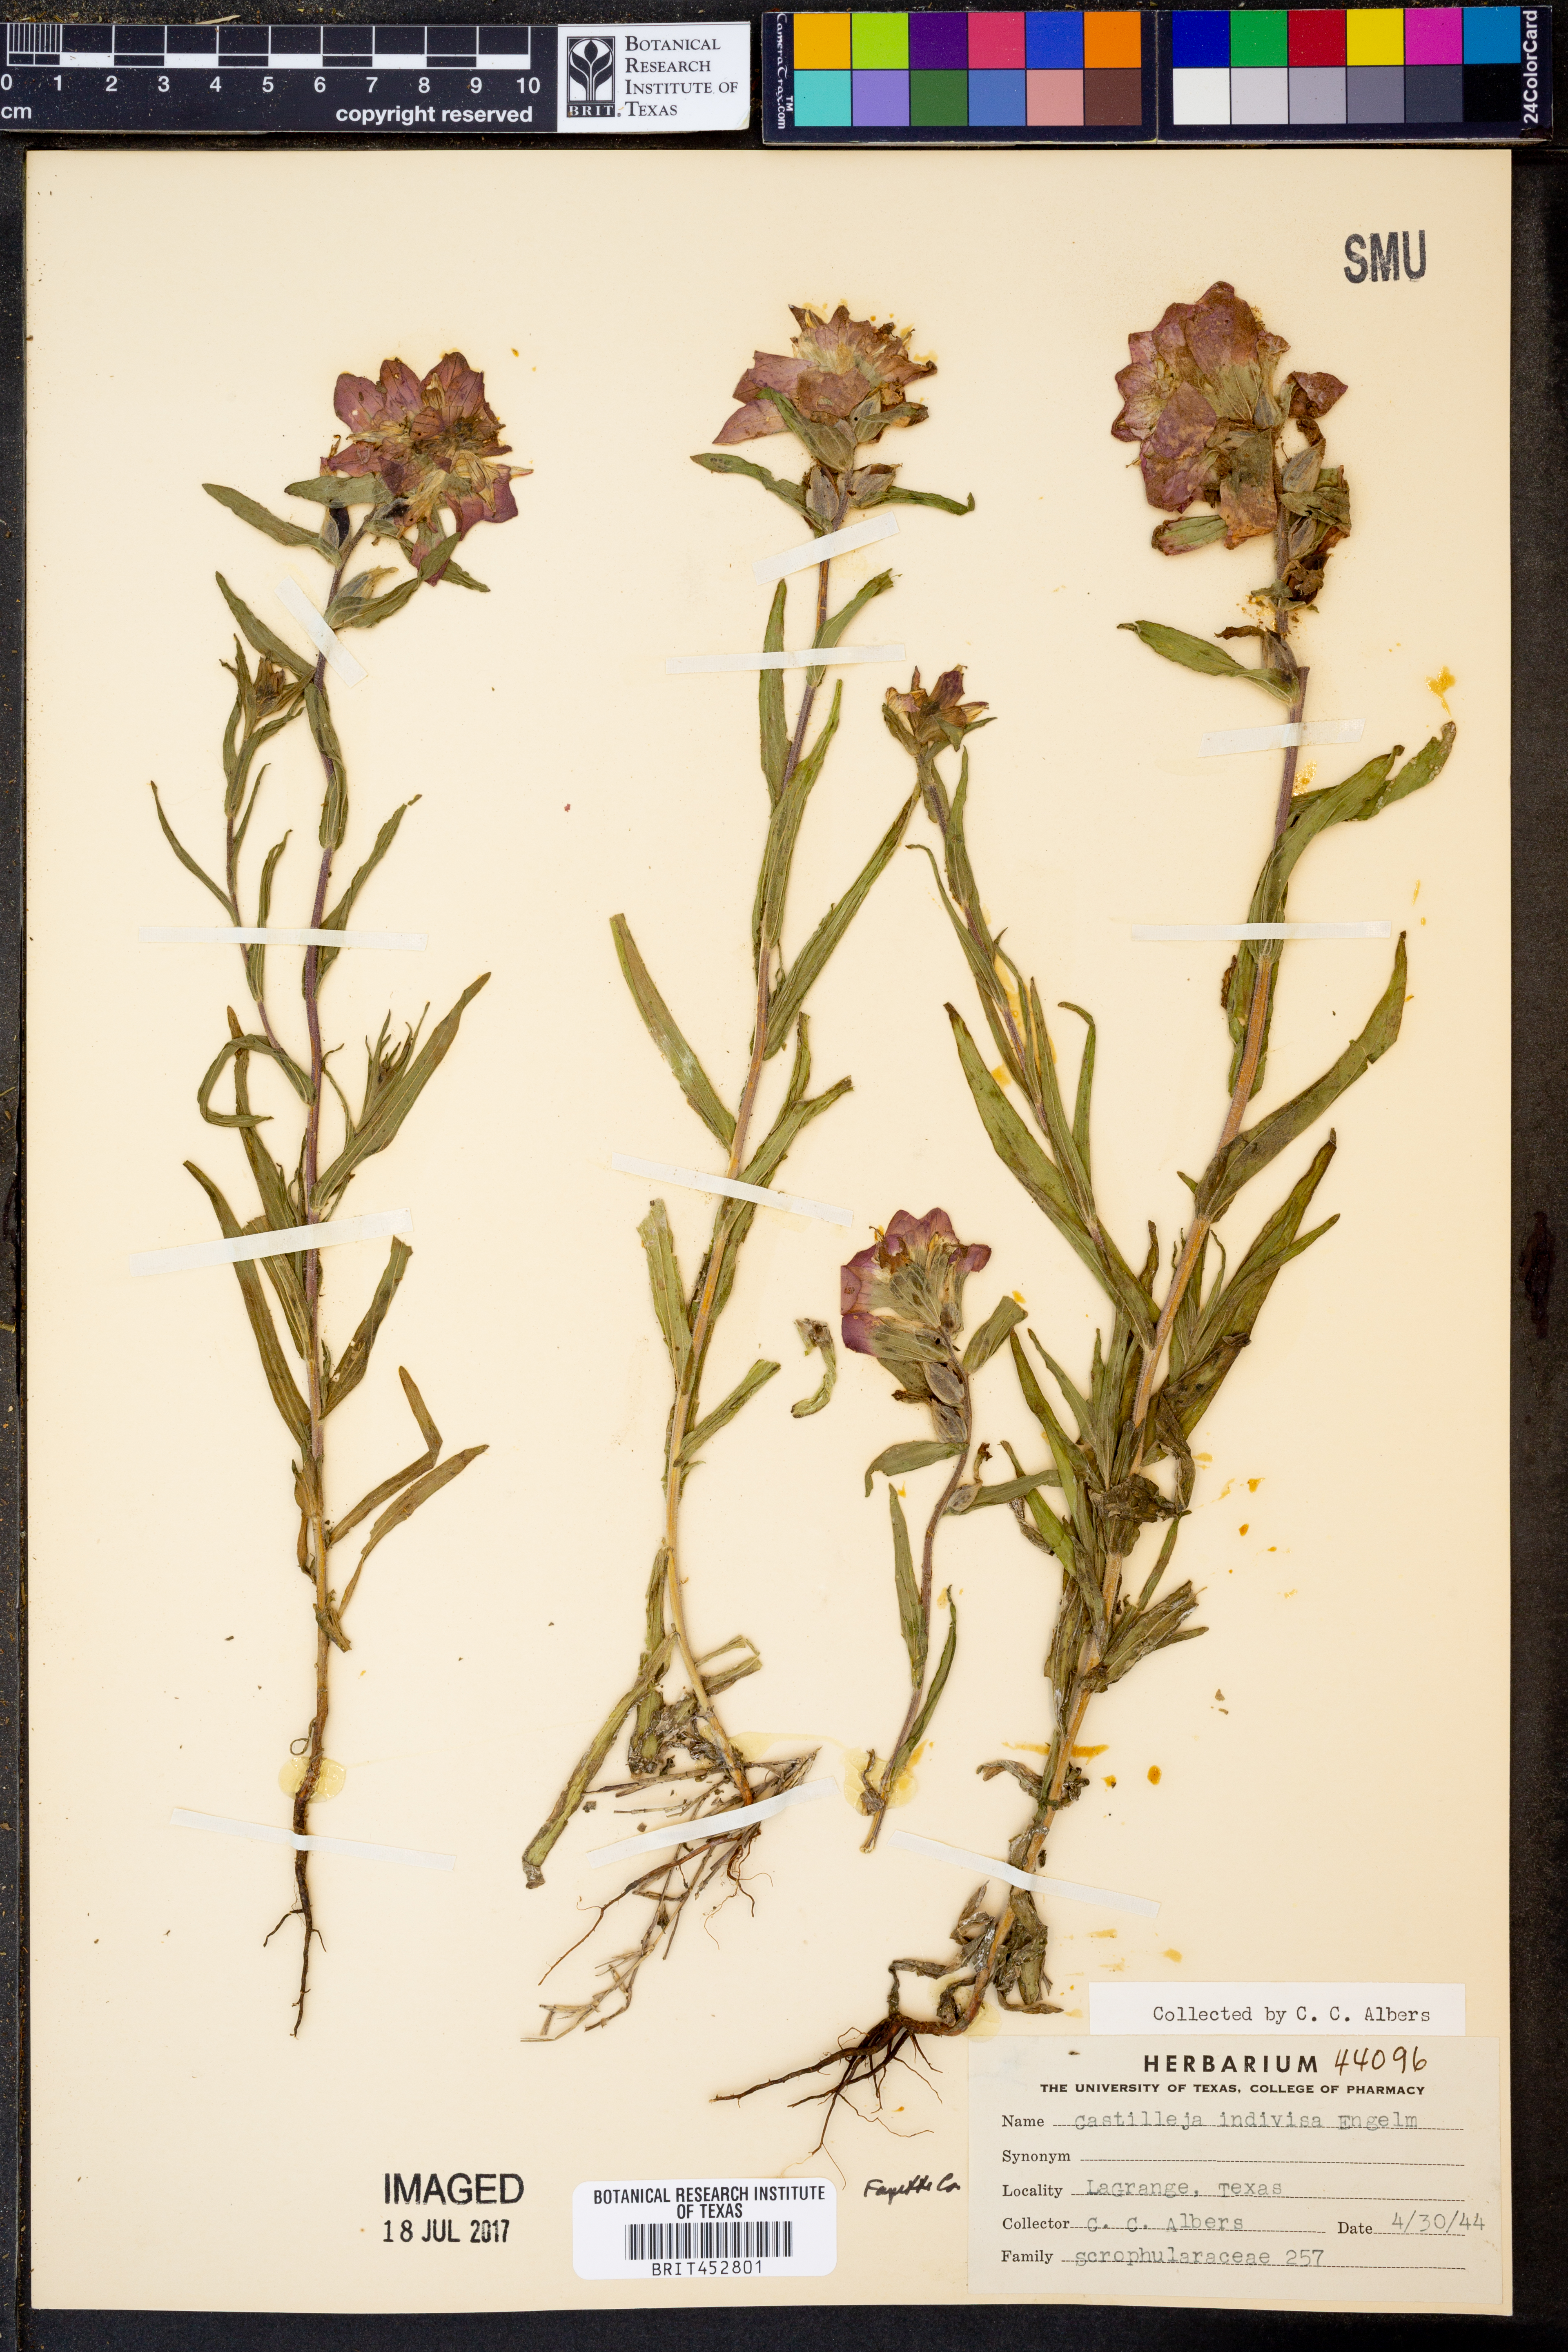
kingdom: Plantae
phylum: Tracheophyta
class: Magnoliopsida
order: Lamiales
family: Orobanchaceae
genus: Castilleja
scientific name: Castilleja indivisa
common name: Texas paintbrush
